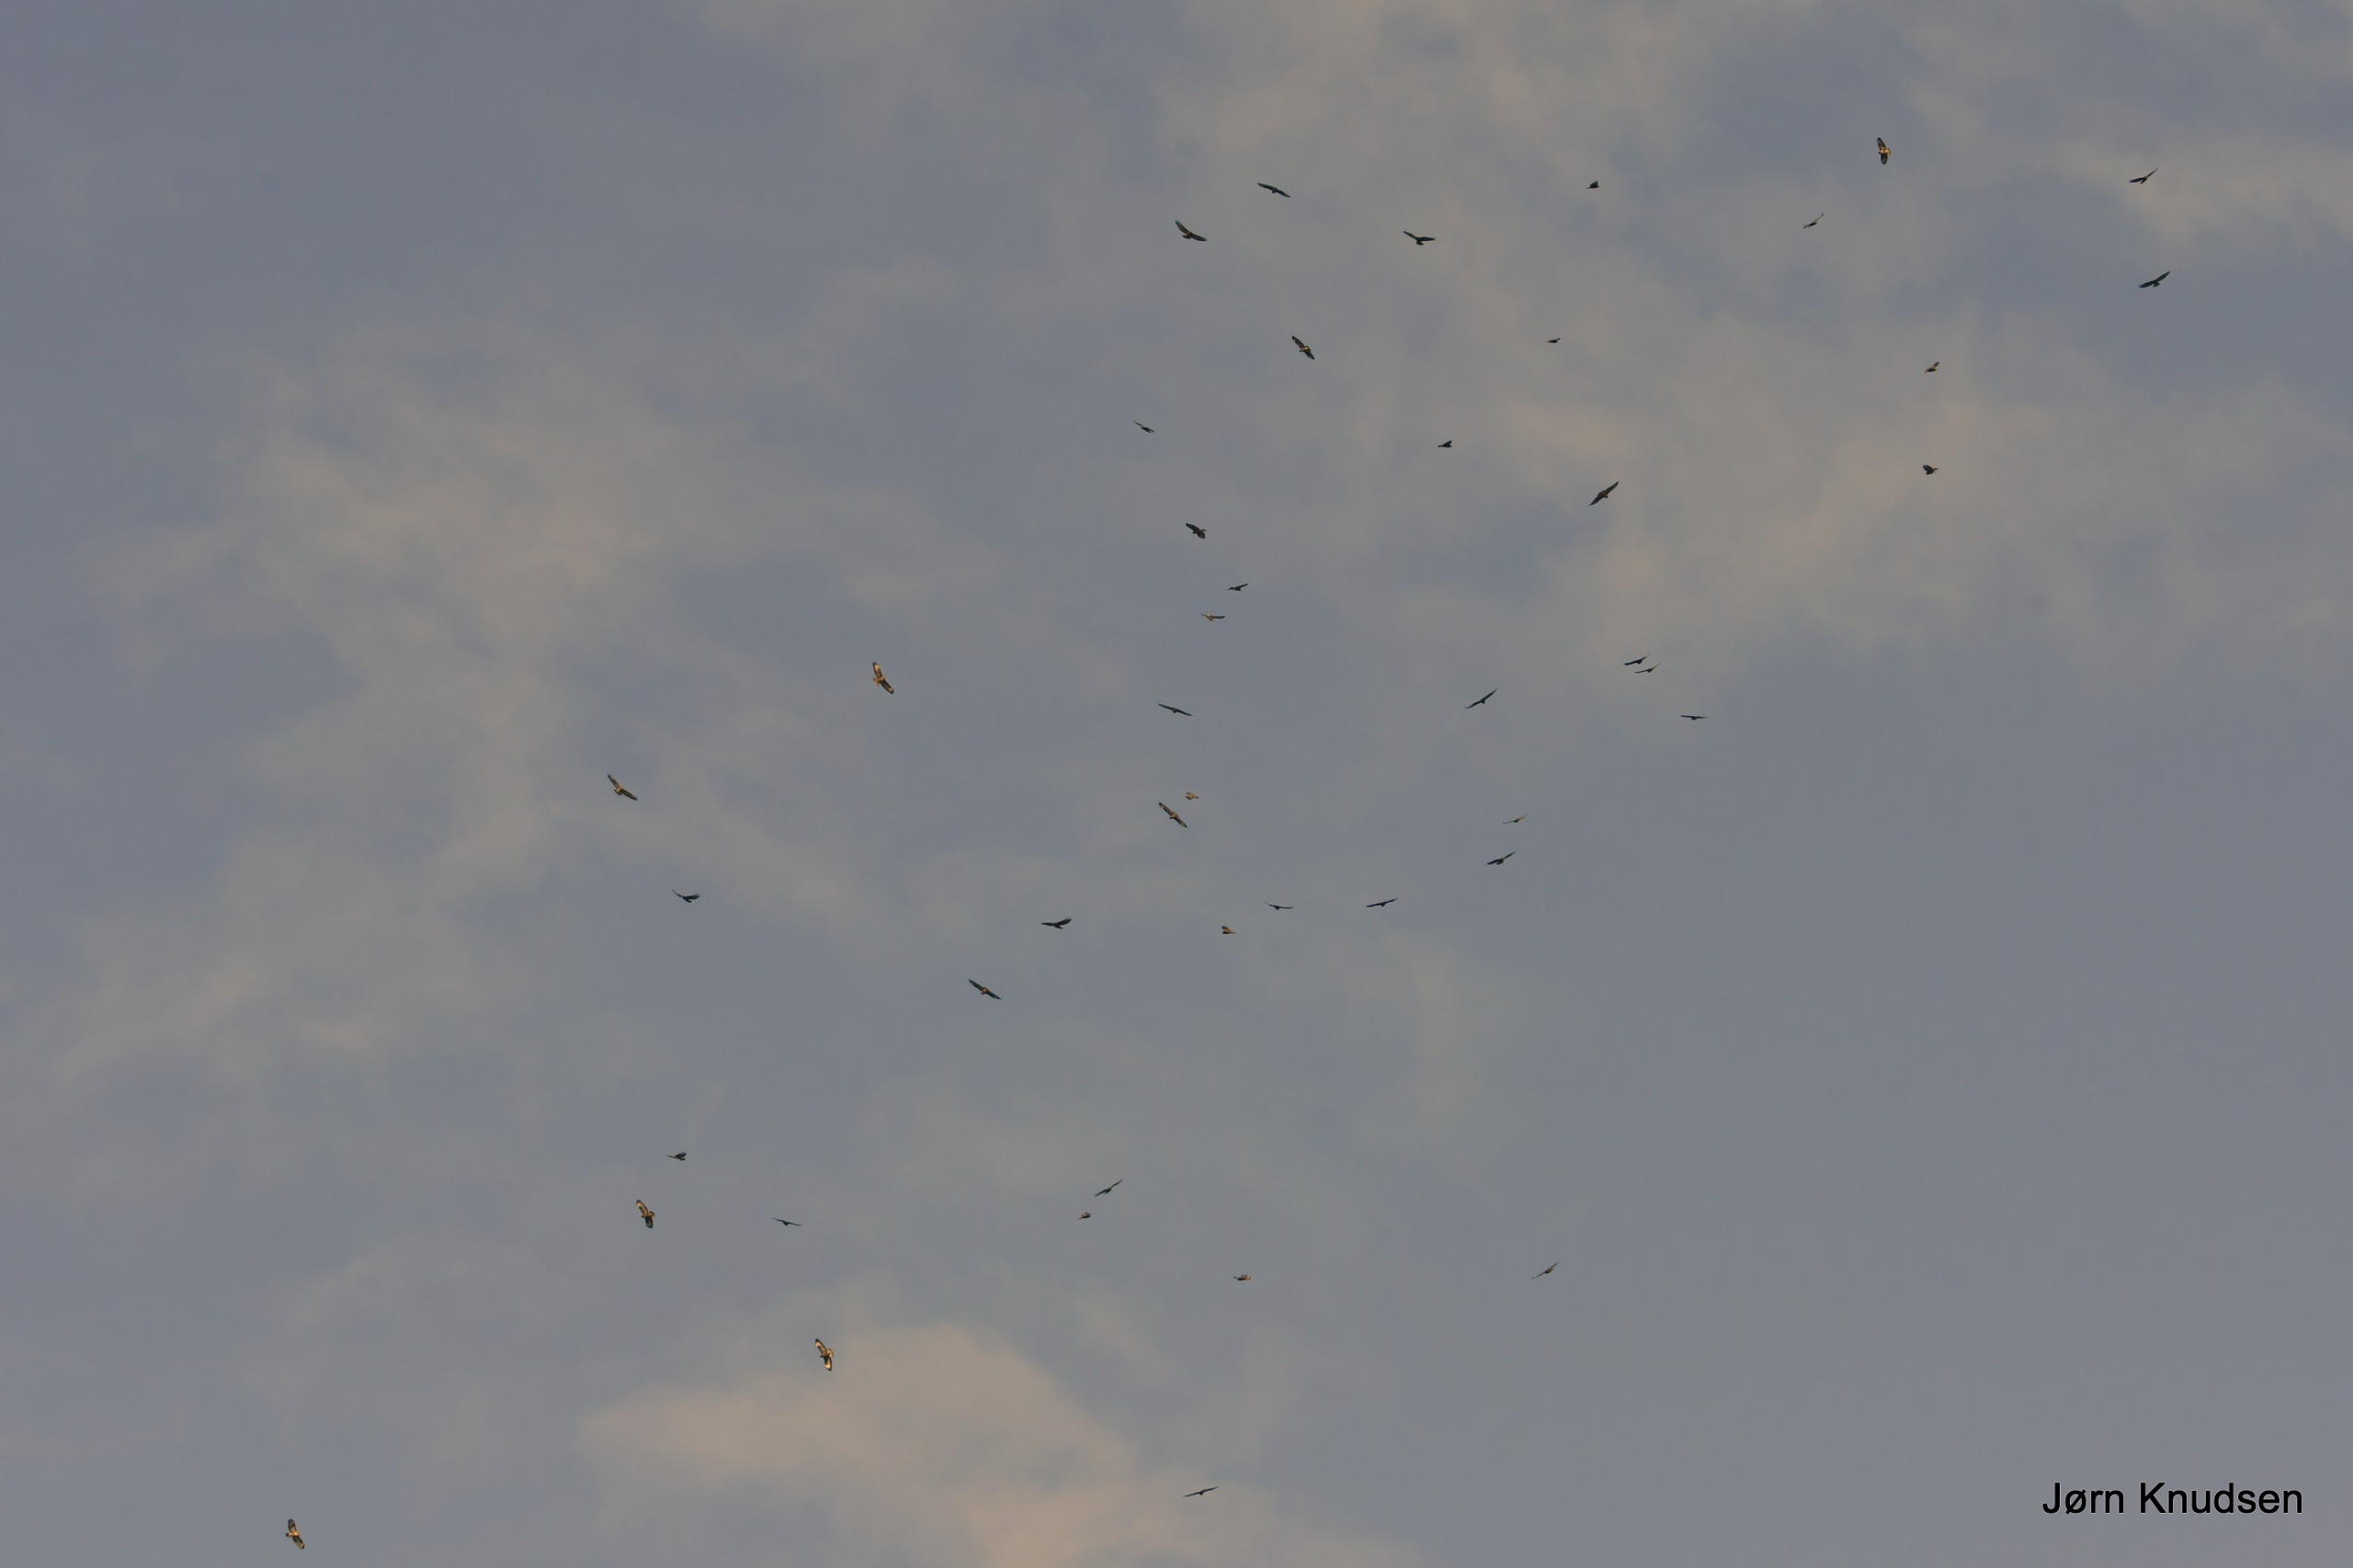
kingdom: Animalia
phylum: Chordata
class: Aves
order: Accipitriformes
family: Accipitridae
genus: Buteo
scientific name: Buteo buteo
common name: Musvåge
